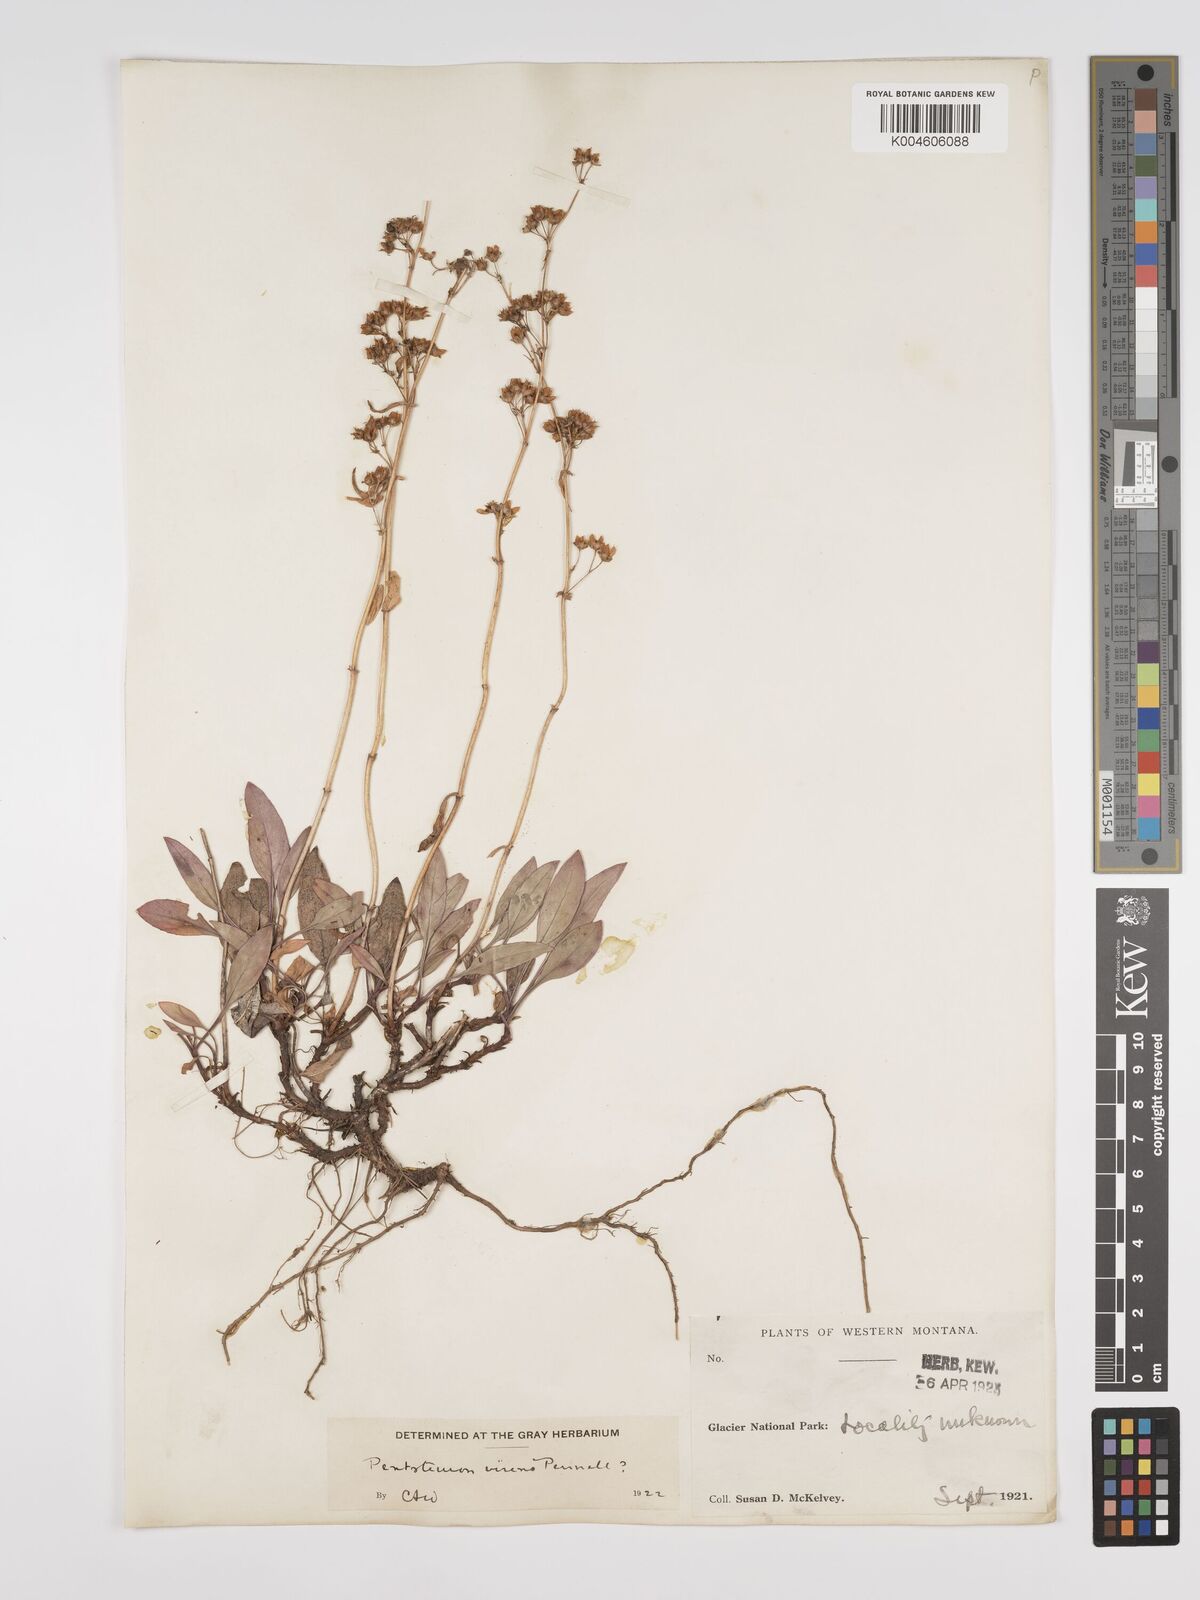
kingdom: Plantae
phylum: Tracheophyta
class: Magnoliopsida
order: Lamiales
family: Plantaginaceae
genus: Penstemon
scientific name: Penstemon virens
